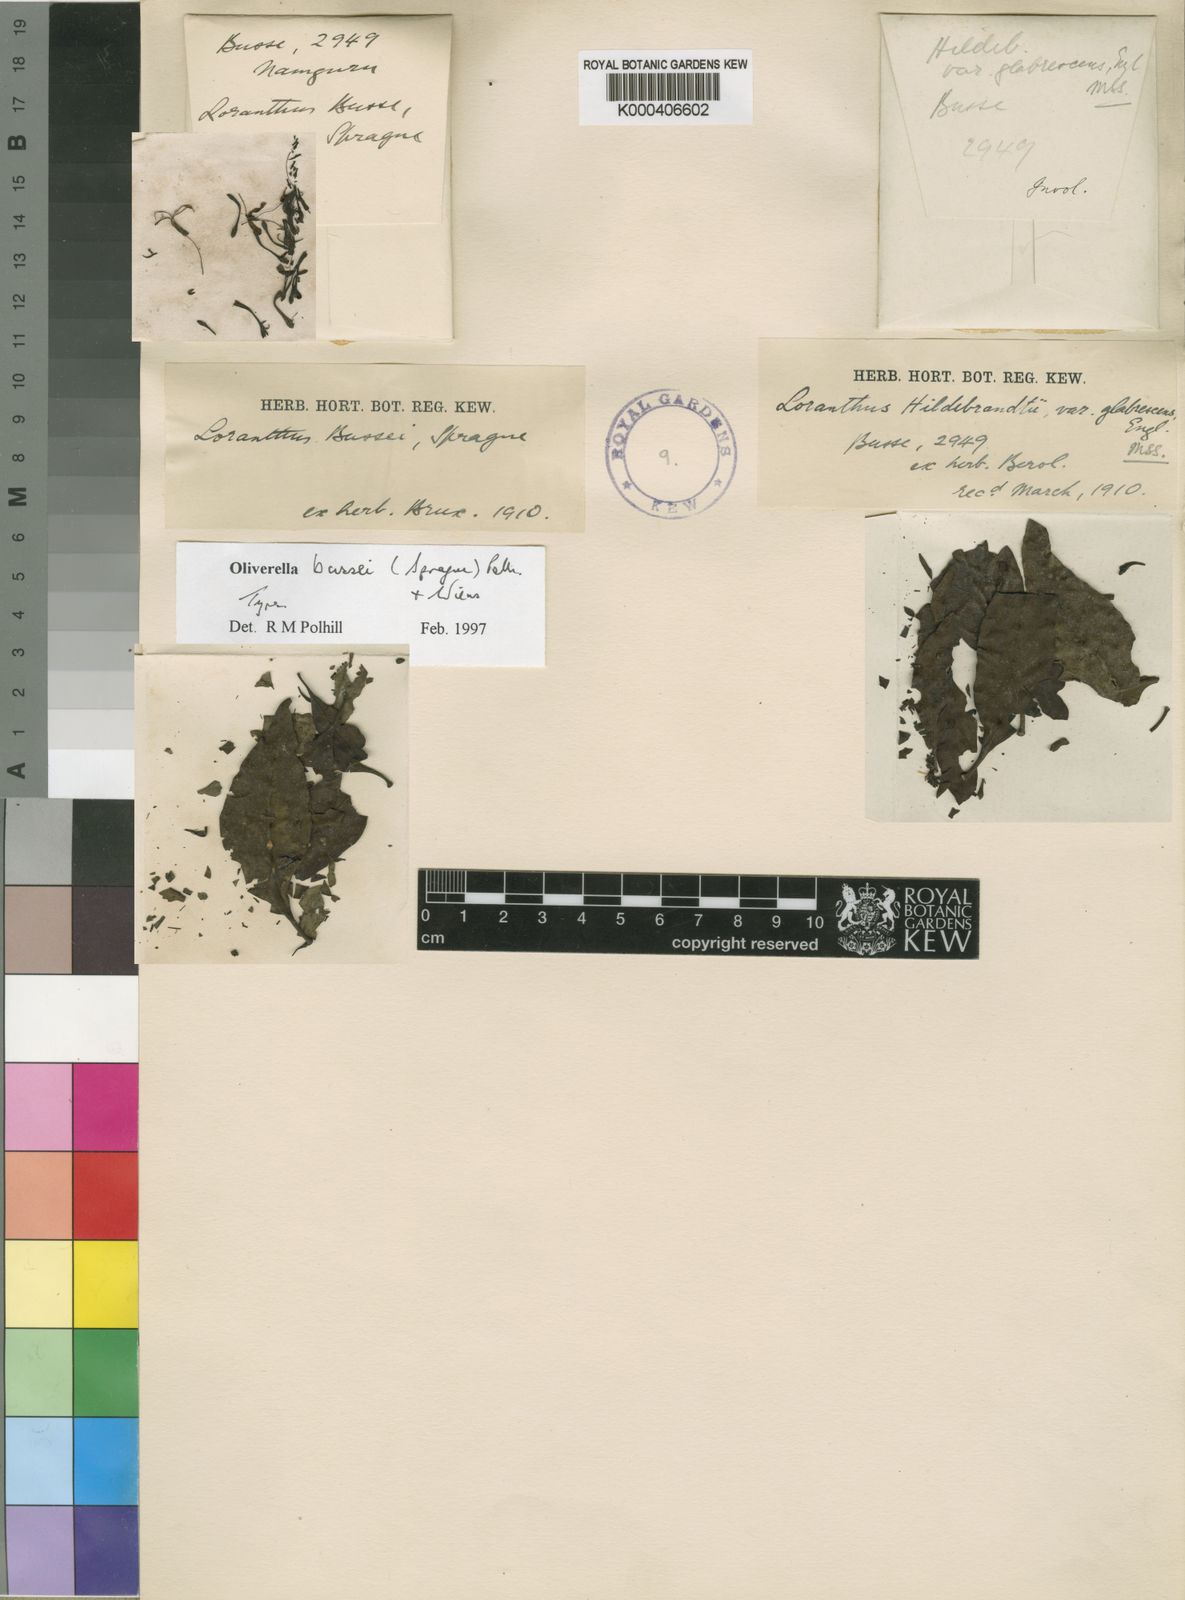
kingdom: Plantae
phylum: Tracheophyta
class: Magnoliopsida
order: Santalales
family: Loranthaceae
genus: Oliverella
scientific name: Oliverella bussei
